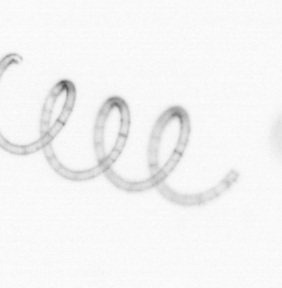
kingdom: Chromista
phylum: Ochrophyta
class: Bacillariophyceae
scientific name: Bacillariophyceae
